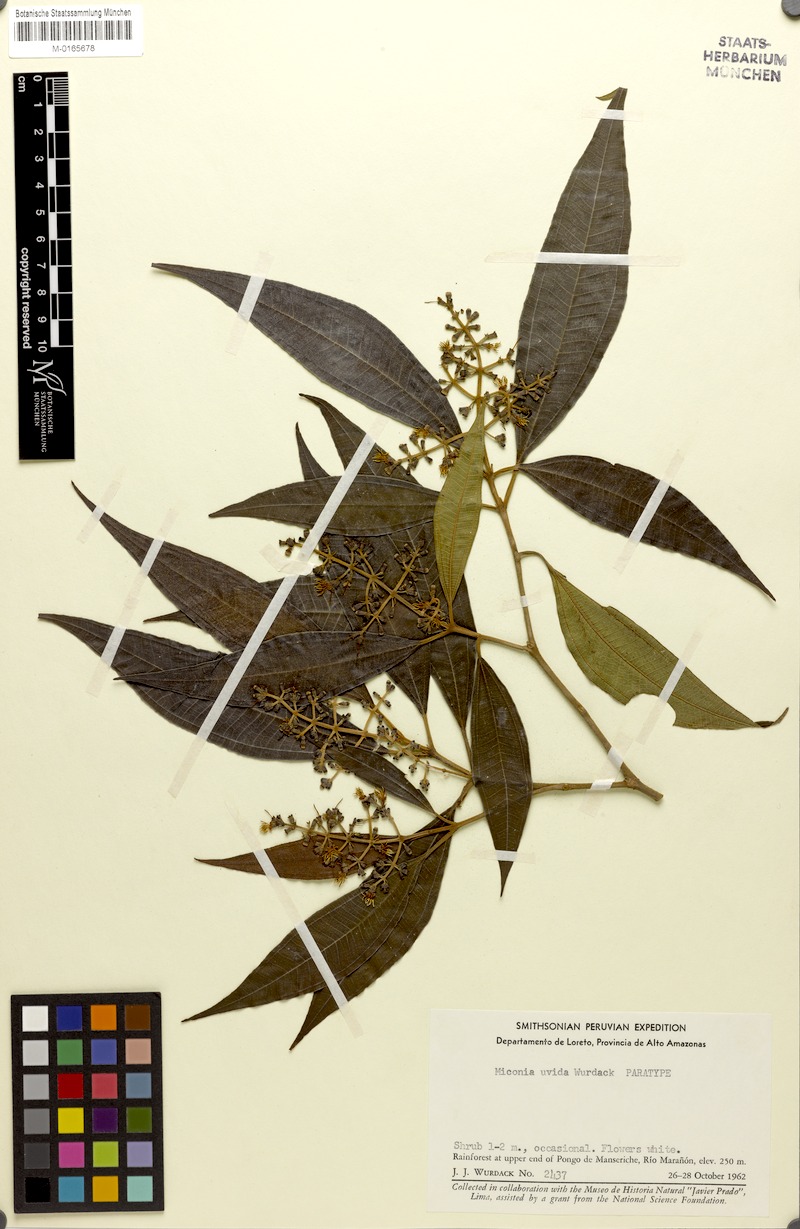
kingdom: Plantae
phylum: Tracheophyta
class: Magnoliopsida
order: Myrtales
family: Melastomataceae
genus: Miconia
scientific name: Miconia uvida
